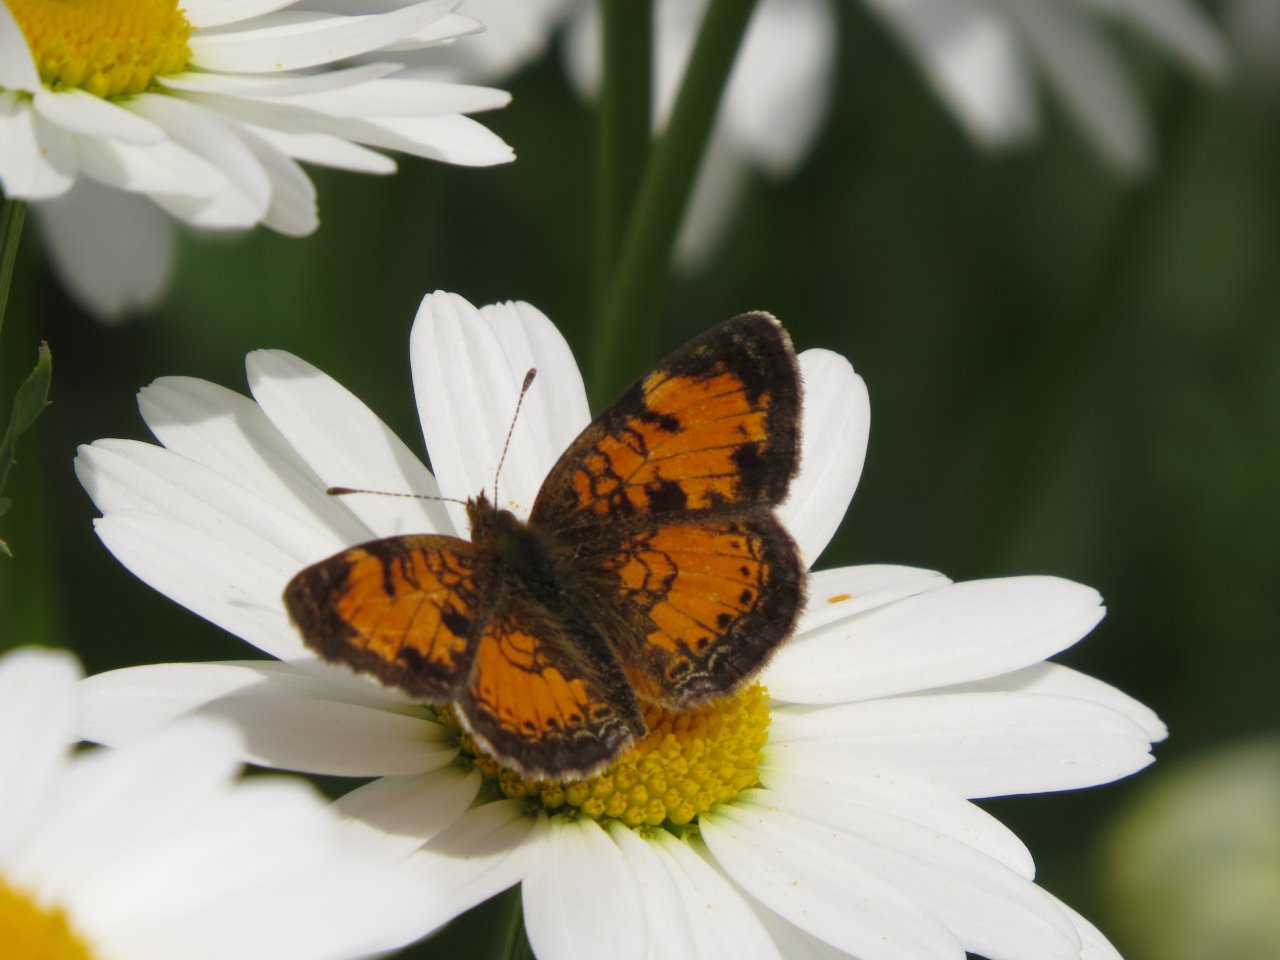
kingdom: Animalia
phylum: Arthropoda
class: Insecta
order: Lepidoptera
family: Nymphalidae
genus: Phyciodes
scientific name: Phyciodes tharos
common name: Northern Crescent
